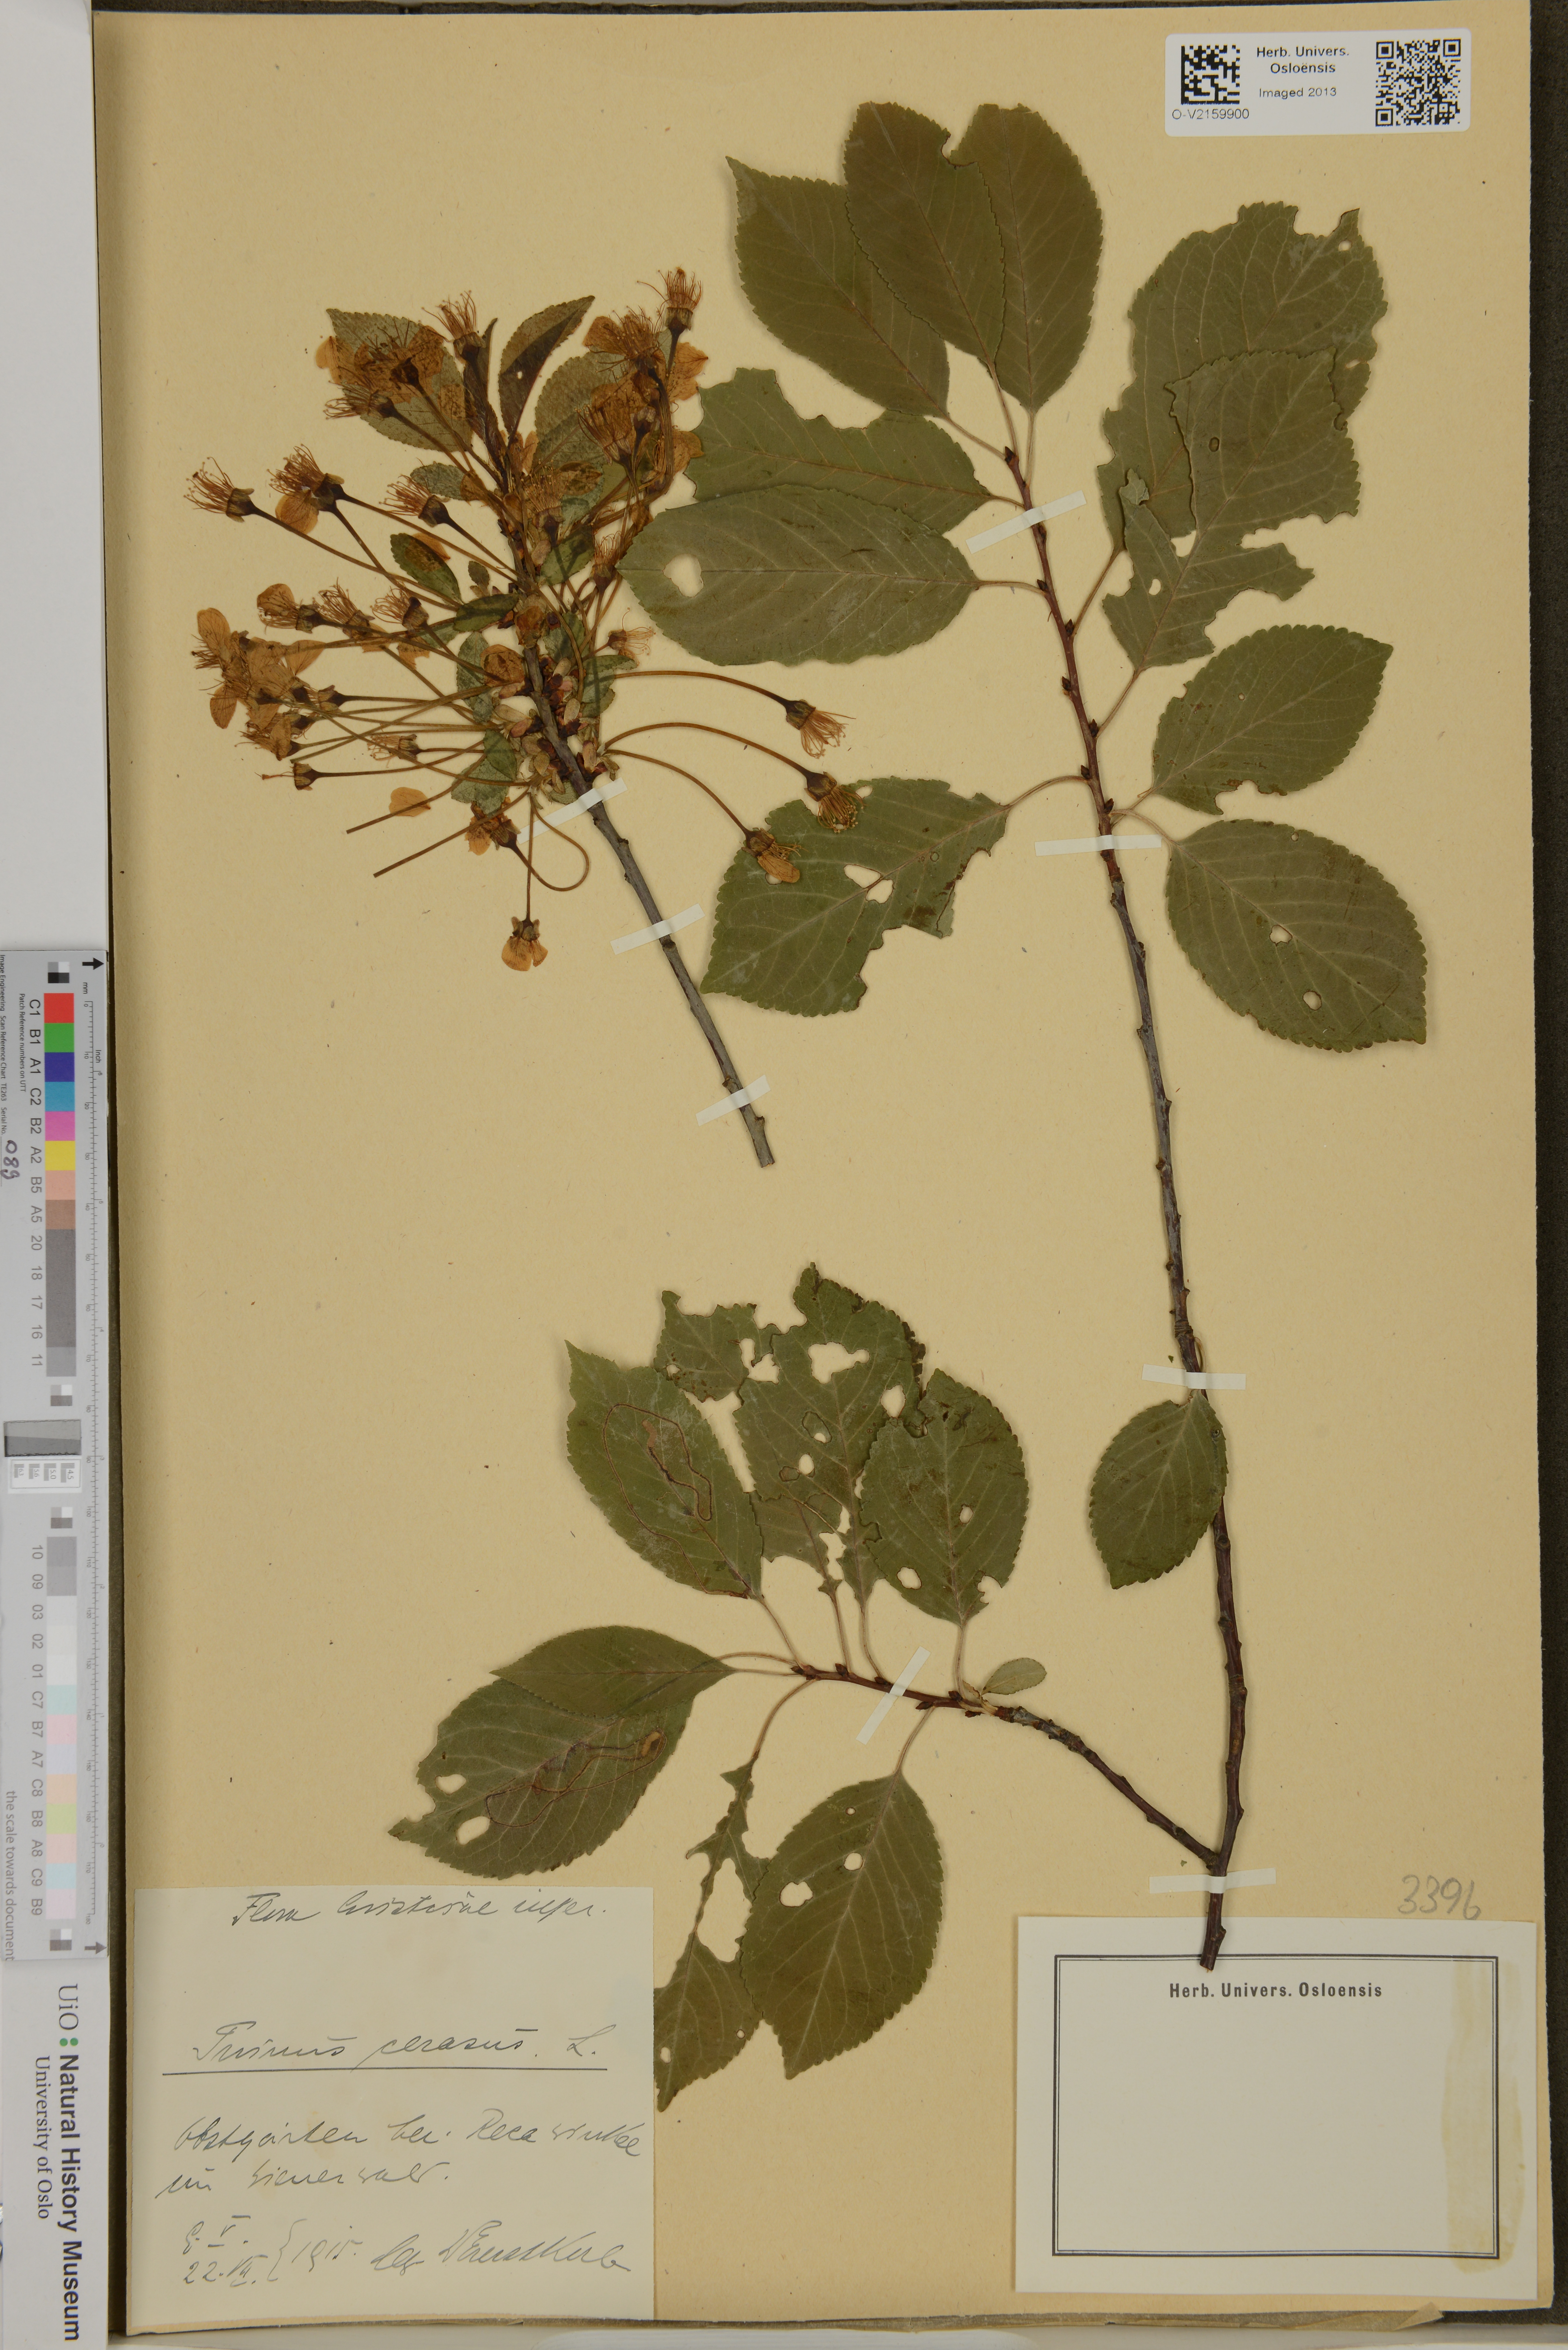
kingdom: Plantae
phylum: Tracheophyta
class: Magnoliopsida
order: Rosales
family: Rosaceae
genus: Prunus
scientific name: Prunus cerasus
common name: Morello cherry
